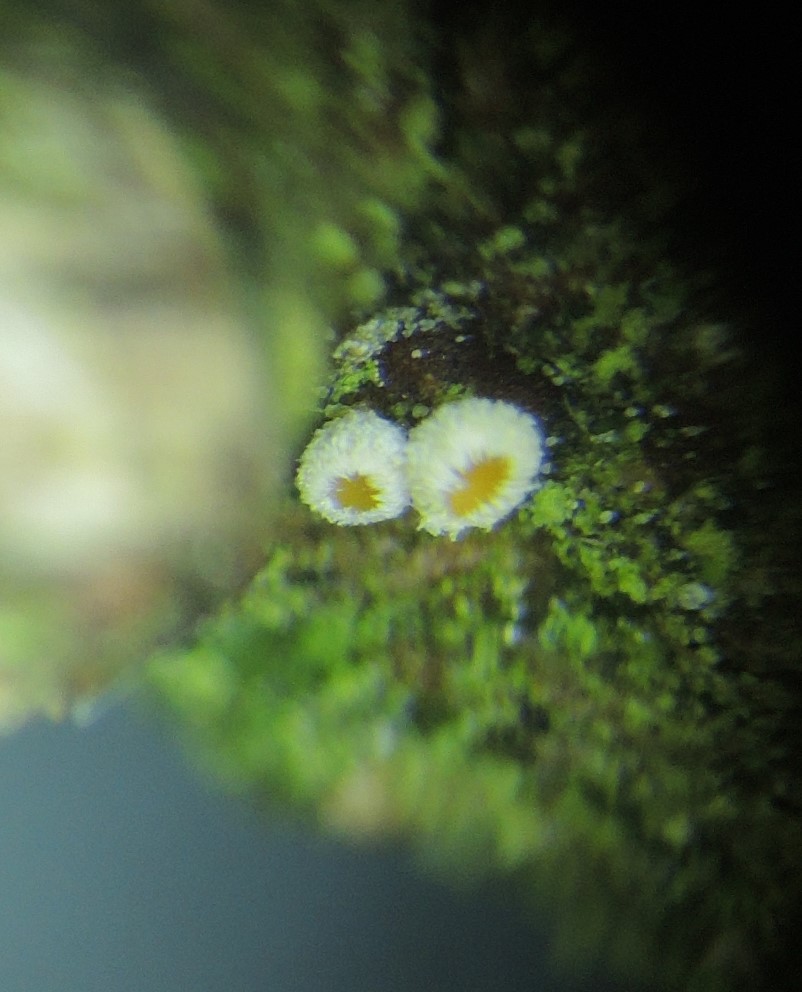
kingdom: Fungi
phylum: Ascomycota
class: Leotiomycetes
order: Helotiales
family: Lachnaceae
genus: Lachnellula
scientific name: Lachnellula pseudofarinacea
